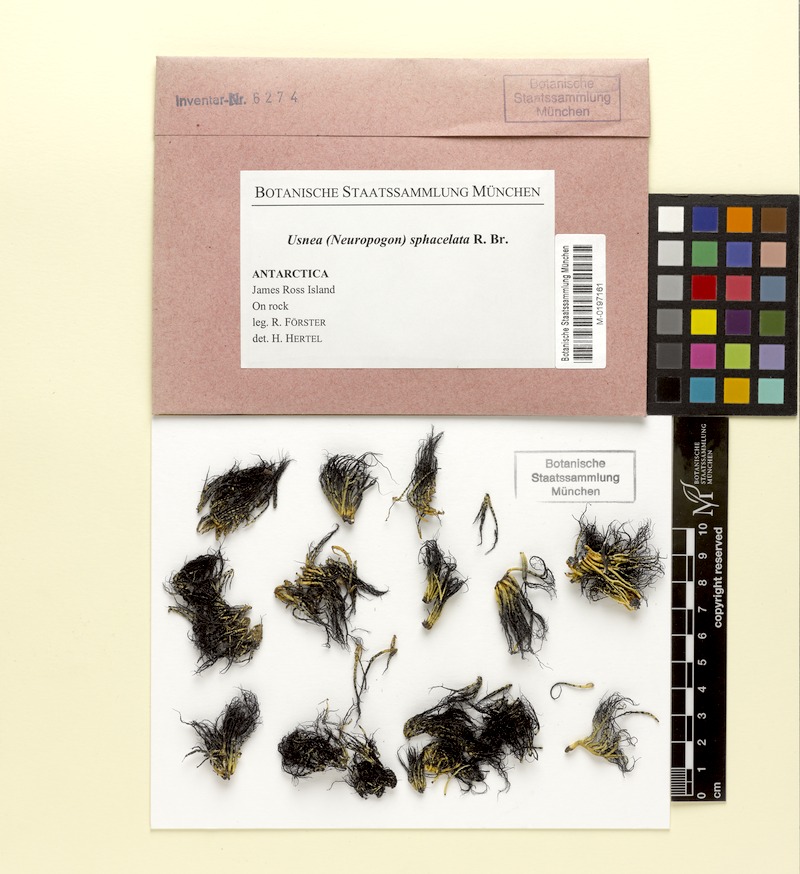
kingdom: Fungi
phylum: Ascomycota
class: Lecanoromycetes
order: Lecanorales
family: Parmeliaceae
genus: Usnea
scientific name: Usnea sphacelata
